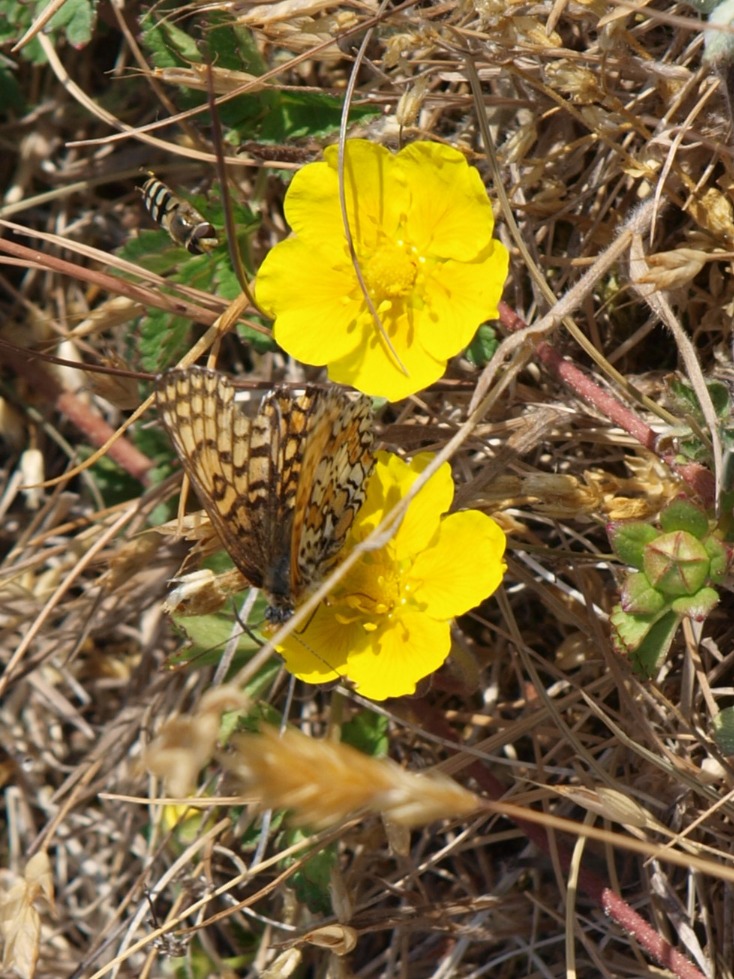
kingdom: Animalia
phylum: Arthropoda
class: Insecta
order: Lepidoptera
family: Nymphalidae
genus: Melitaea
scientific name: Melitaea cinxia
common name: Okkergul pletvinge
